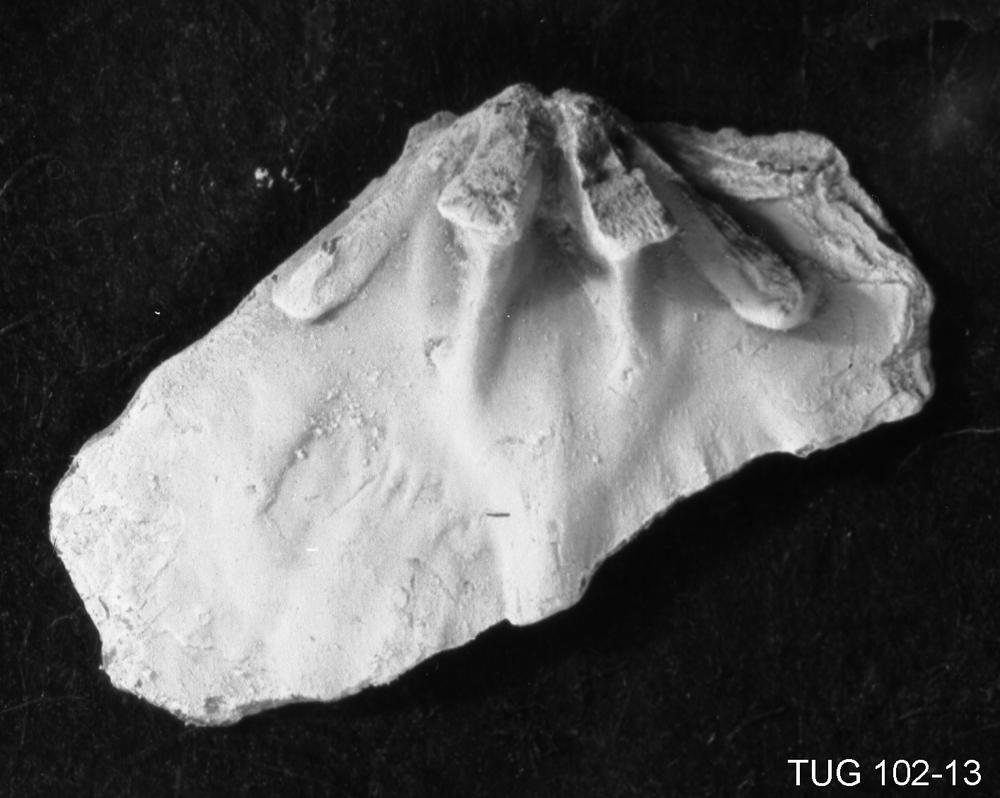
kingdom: Animalia
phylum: Brachiopoda
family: Rafinesquinidae
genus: Kjaerina
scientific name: Kjaerina Rafinesquina orvikui
